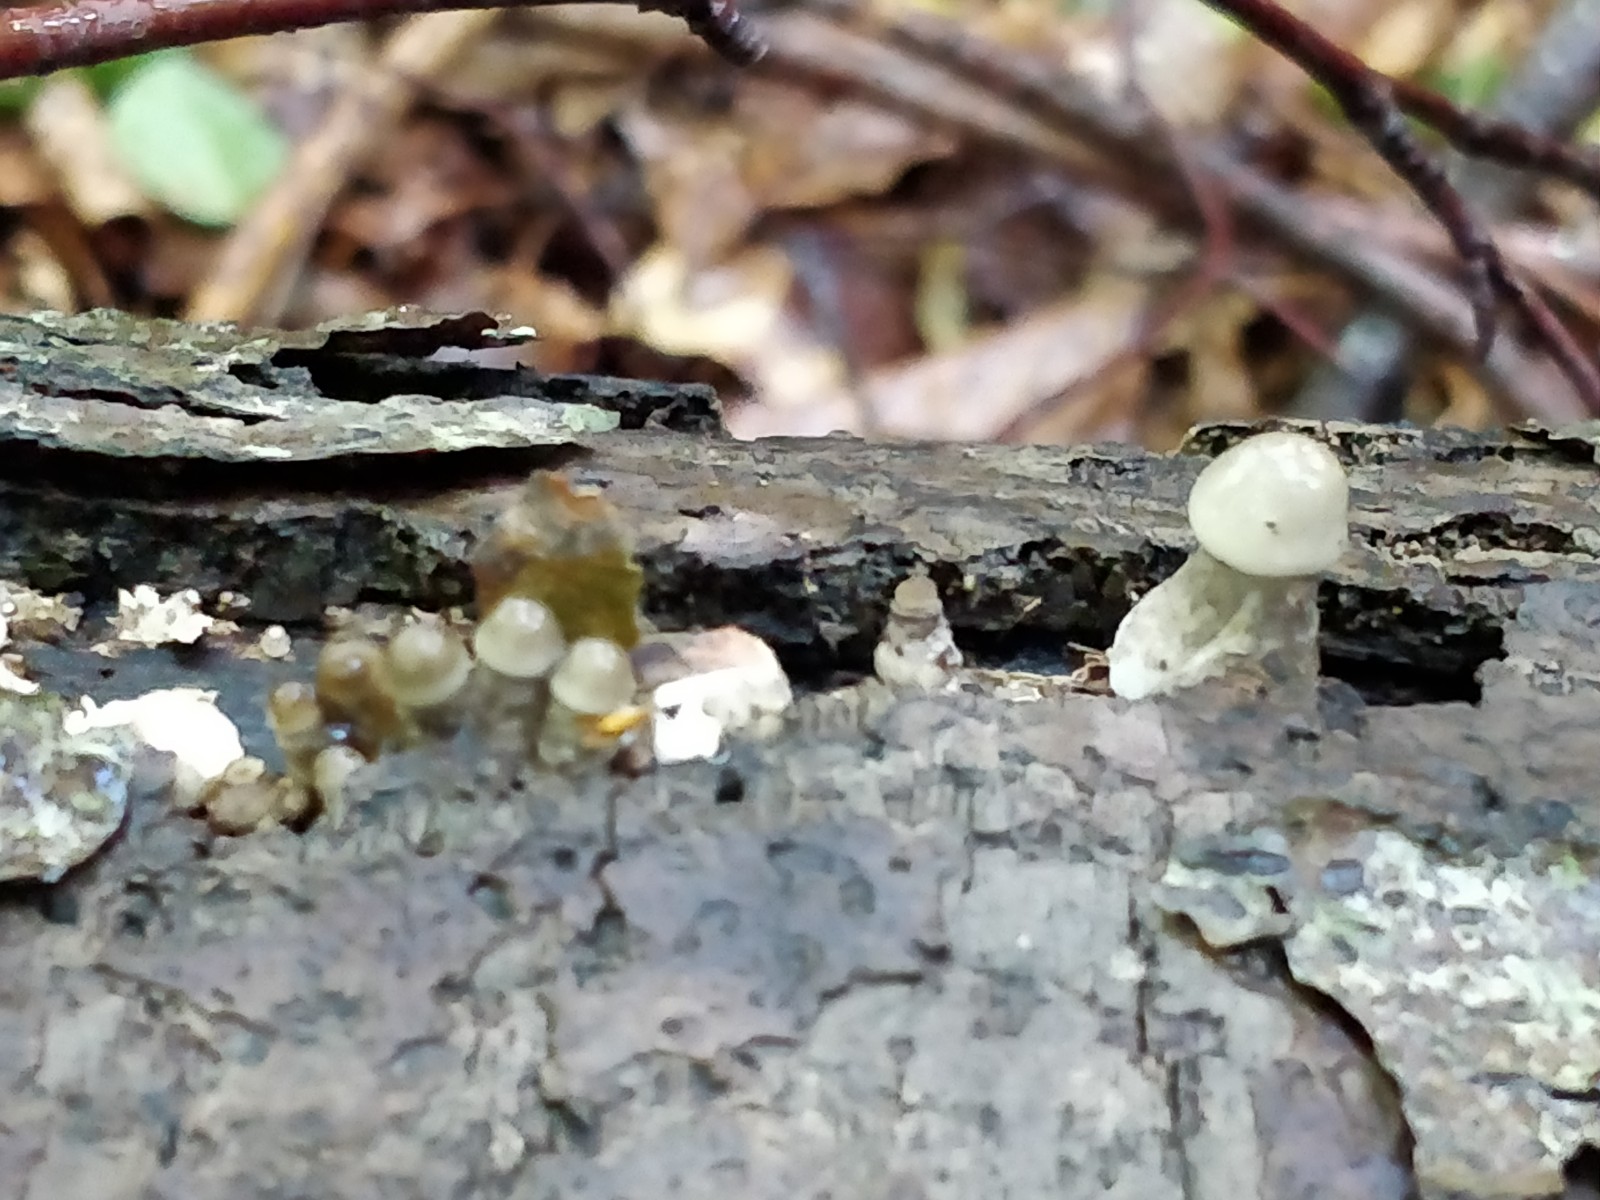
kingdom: Fungi
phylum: Basidiomycota
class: Agaricomycetes
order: Agaricales
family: Physalacriaceae
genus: Mucidula
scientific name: Mucidula mucida
